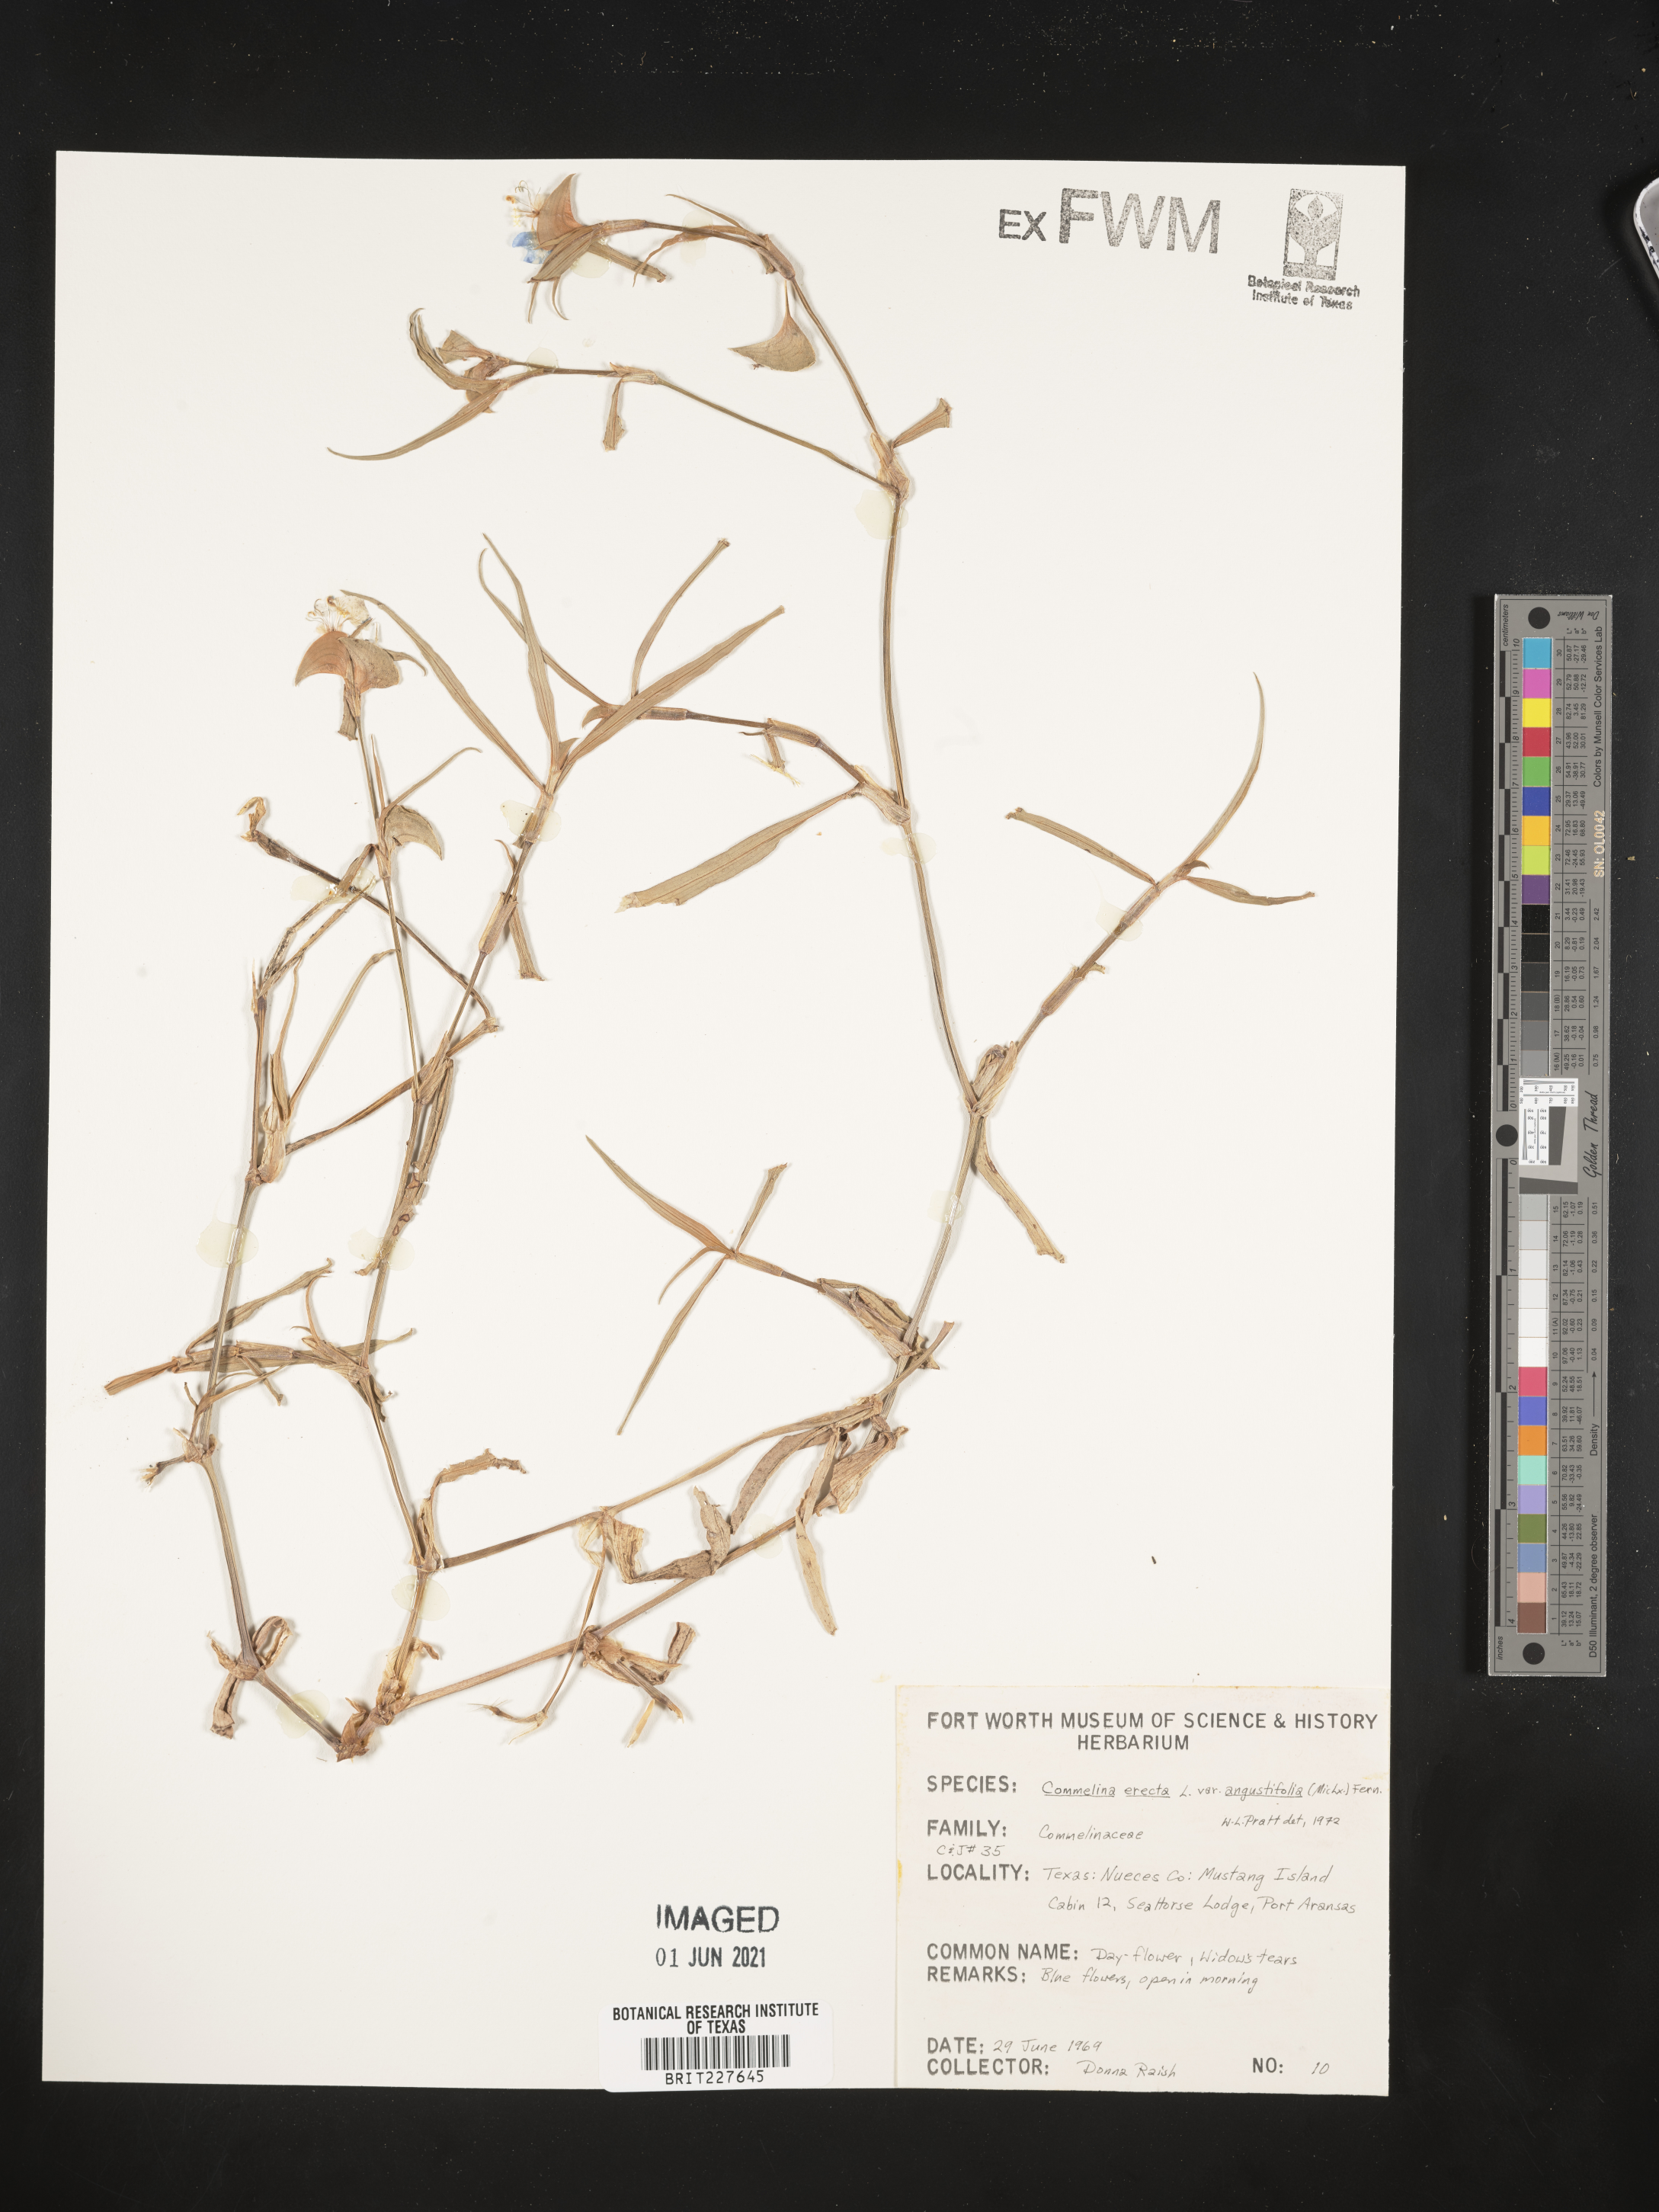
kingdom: Plantae
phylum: Tracheophyta
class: Liliopsida
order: Commelinales
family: Commelinaceae
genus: Commelina
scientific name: Commelina erecta
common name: Blousel blommetjie
